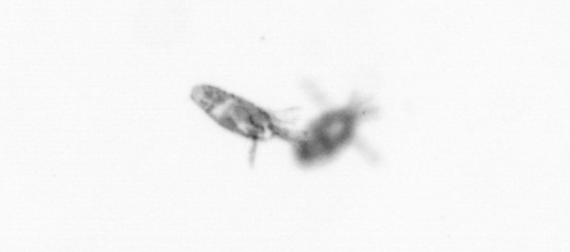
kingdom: Animalia
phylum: Arthropoda
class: Copepoda
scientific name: Copepoda
